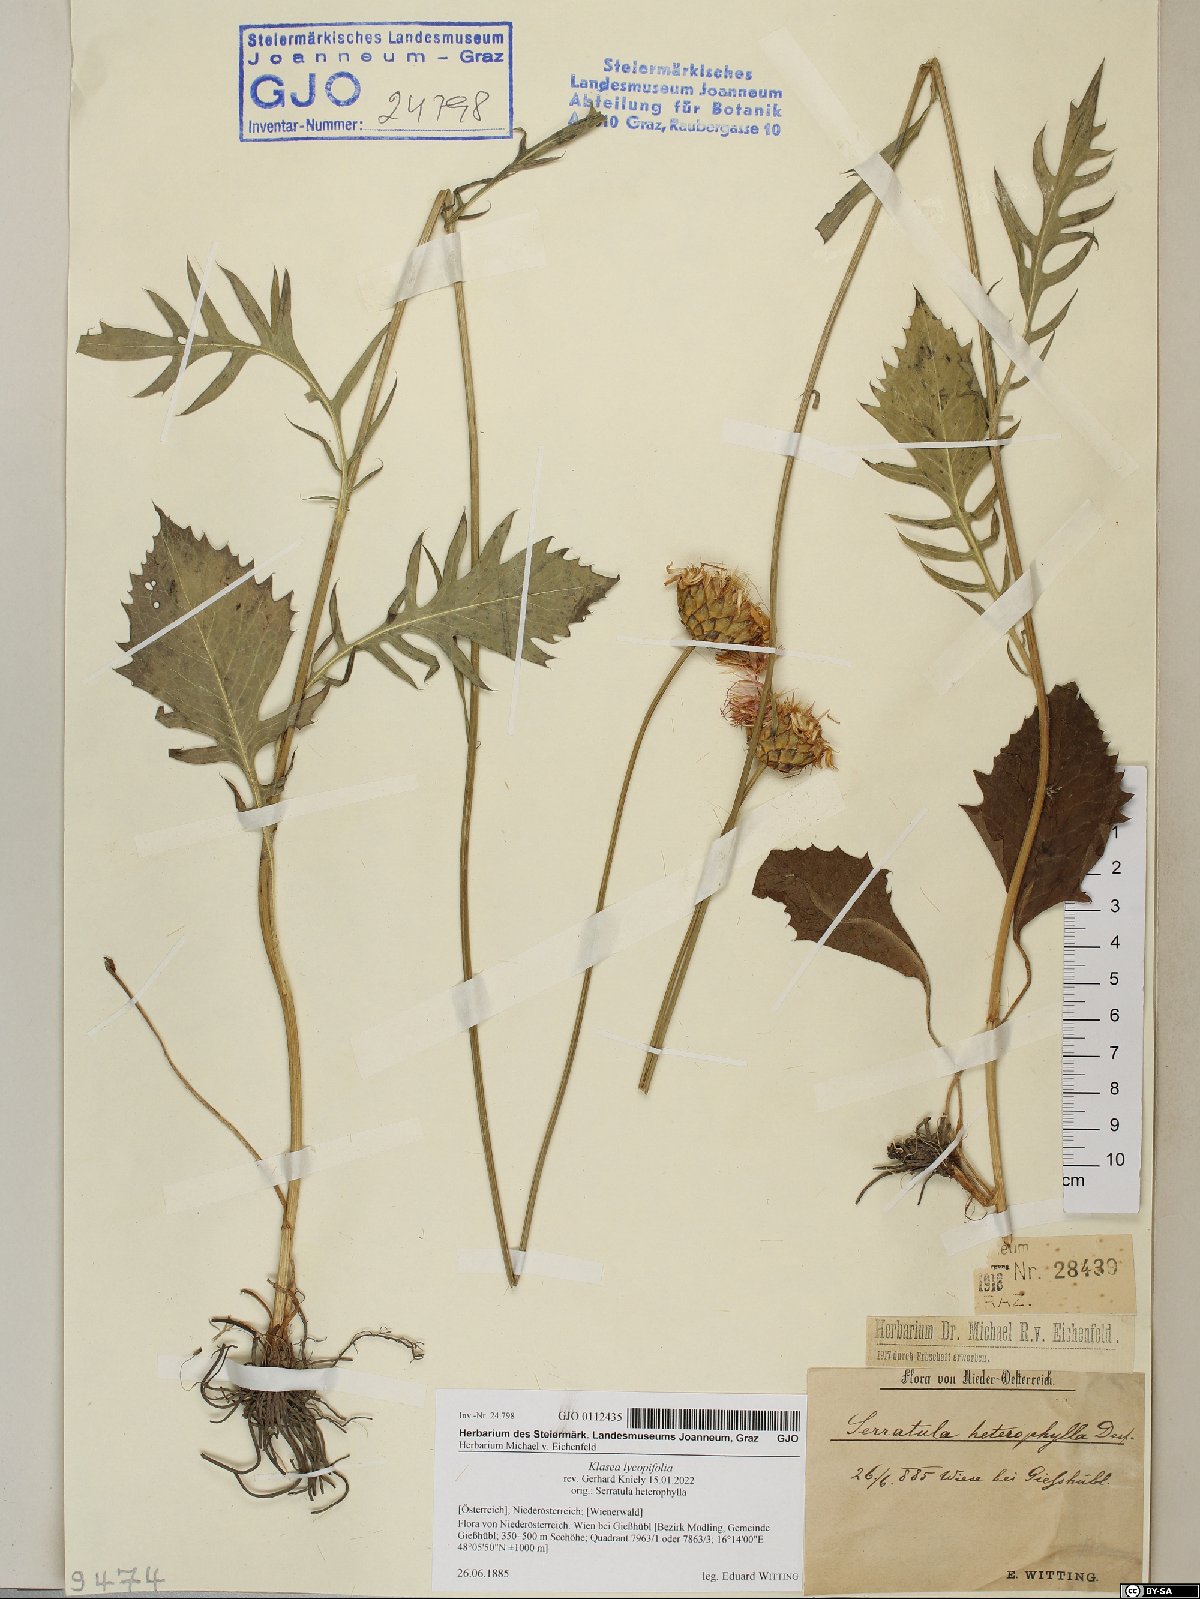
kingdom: Plantae
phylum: Tracheophyta
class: Magnoliopsida
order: Asterales
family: Asteraceae
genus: Klasea
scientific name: Klasea lycopifolia
